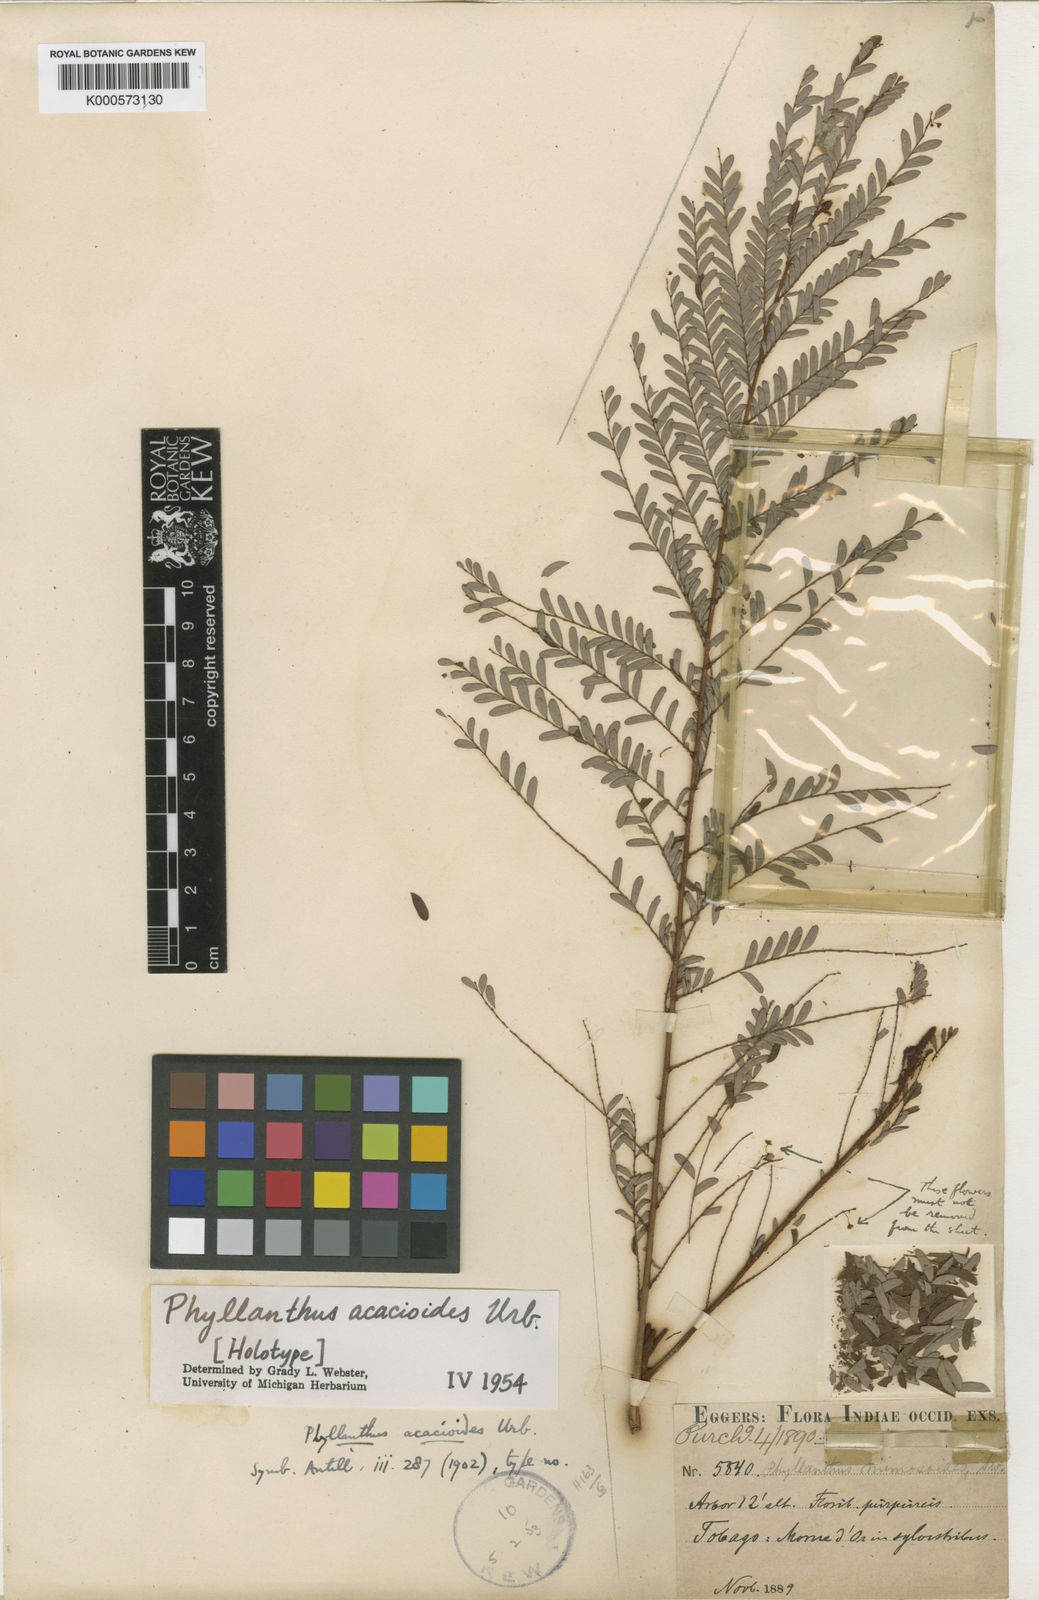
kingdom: Plantae
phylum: Tracheophyta
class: Magnoliopsida
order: Malpighiales
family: Phyllanthaceae
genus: Phyllanthus
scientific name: Phyllanthus acacioides
